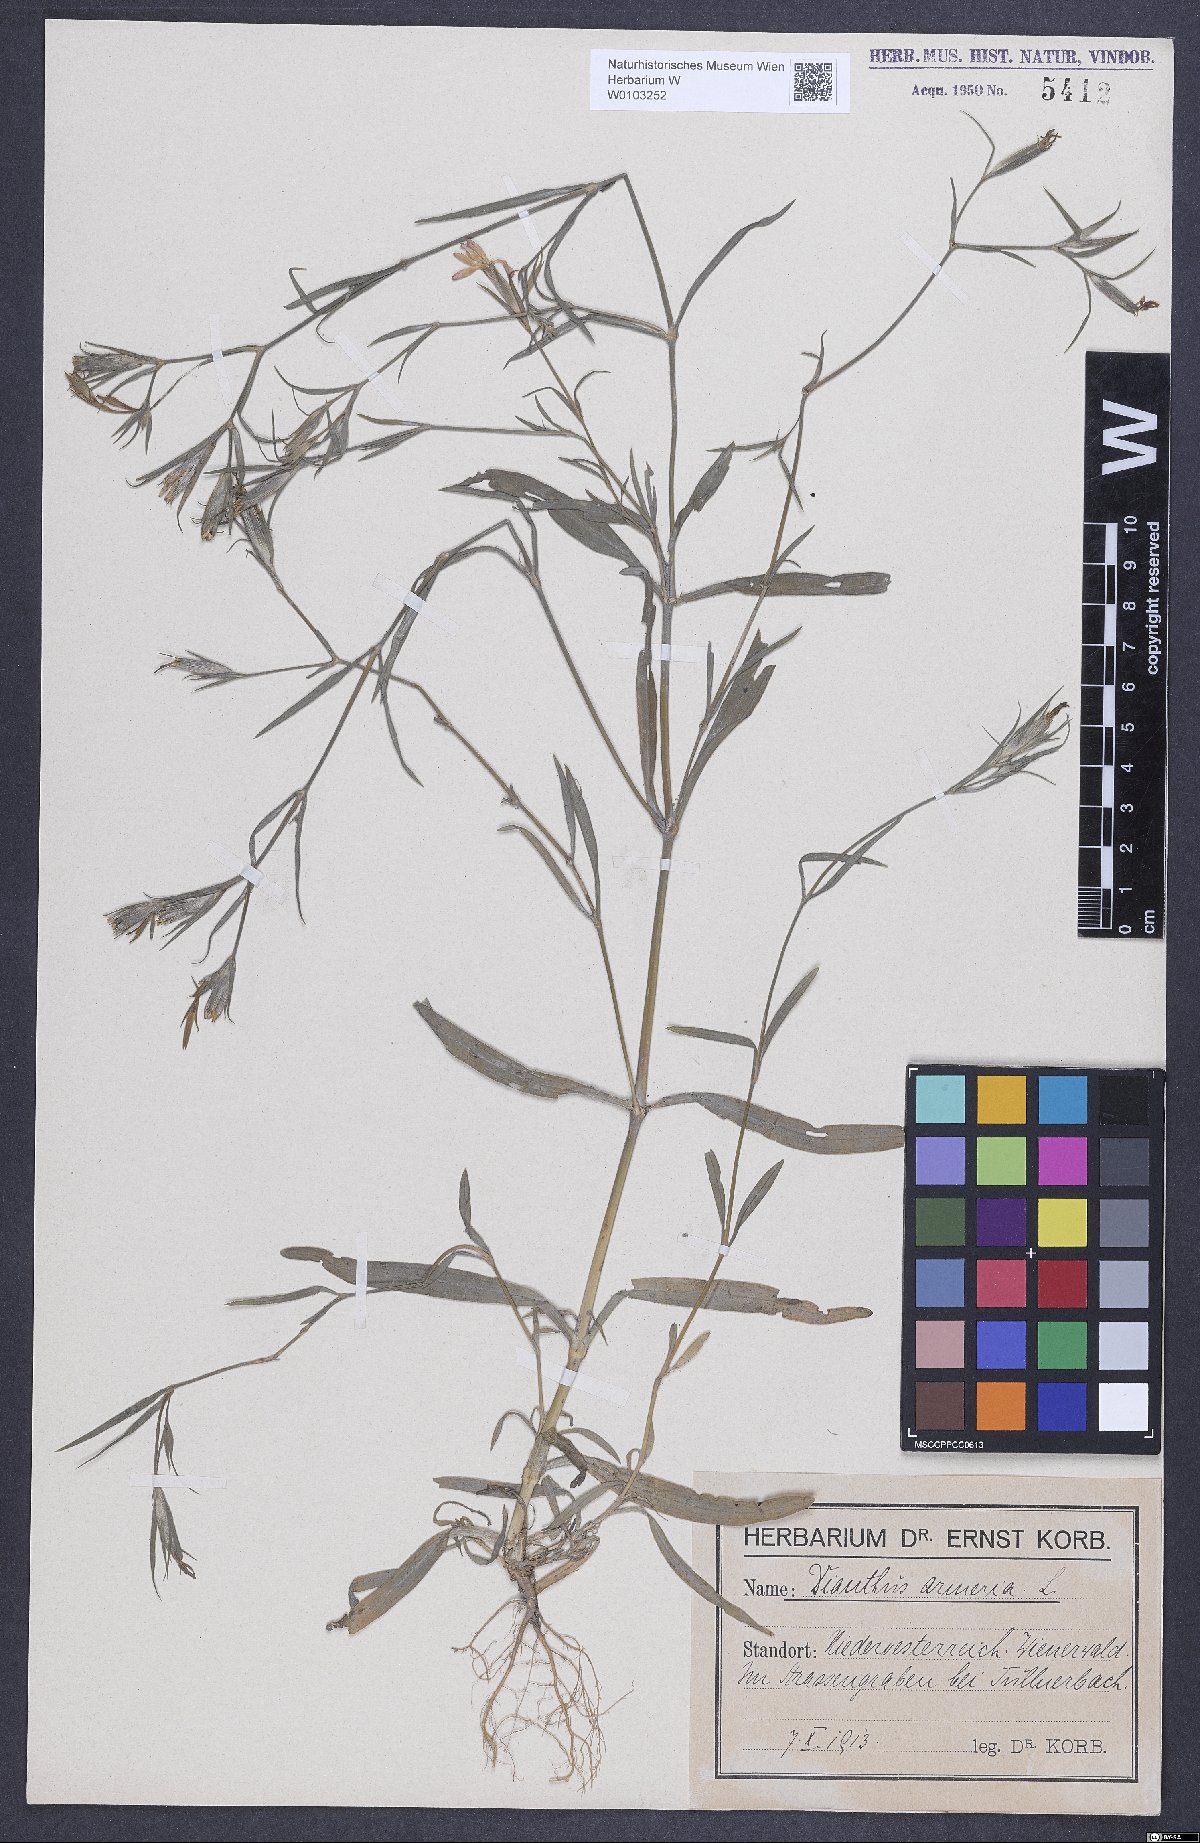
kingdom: Plantae
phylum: Tracheophyta
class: Magnoliopsida
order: Caryophyllales
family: Caryophyllaceae
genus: Dianthus
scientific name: Dianthus armeria
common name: Deptford pink
